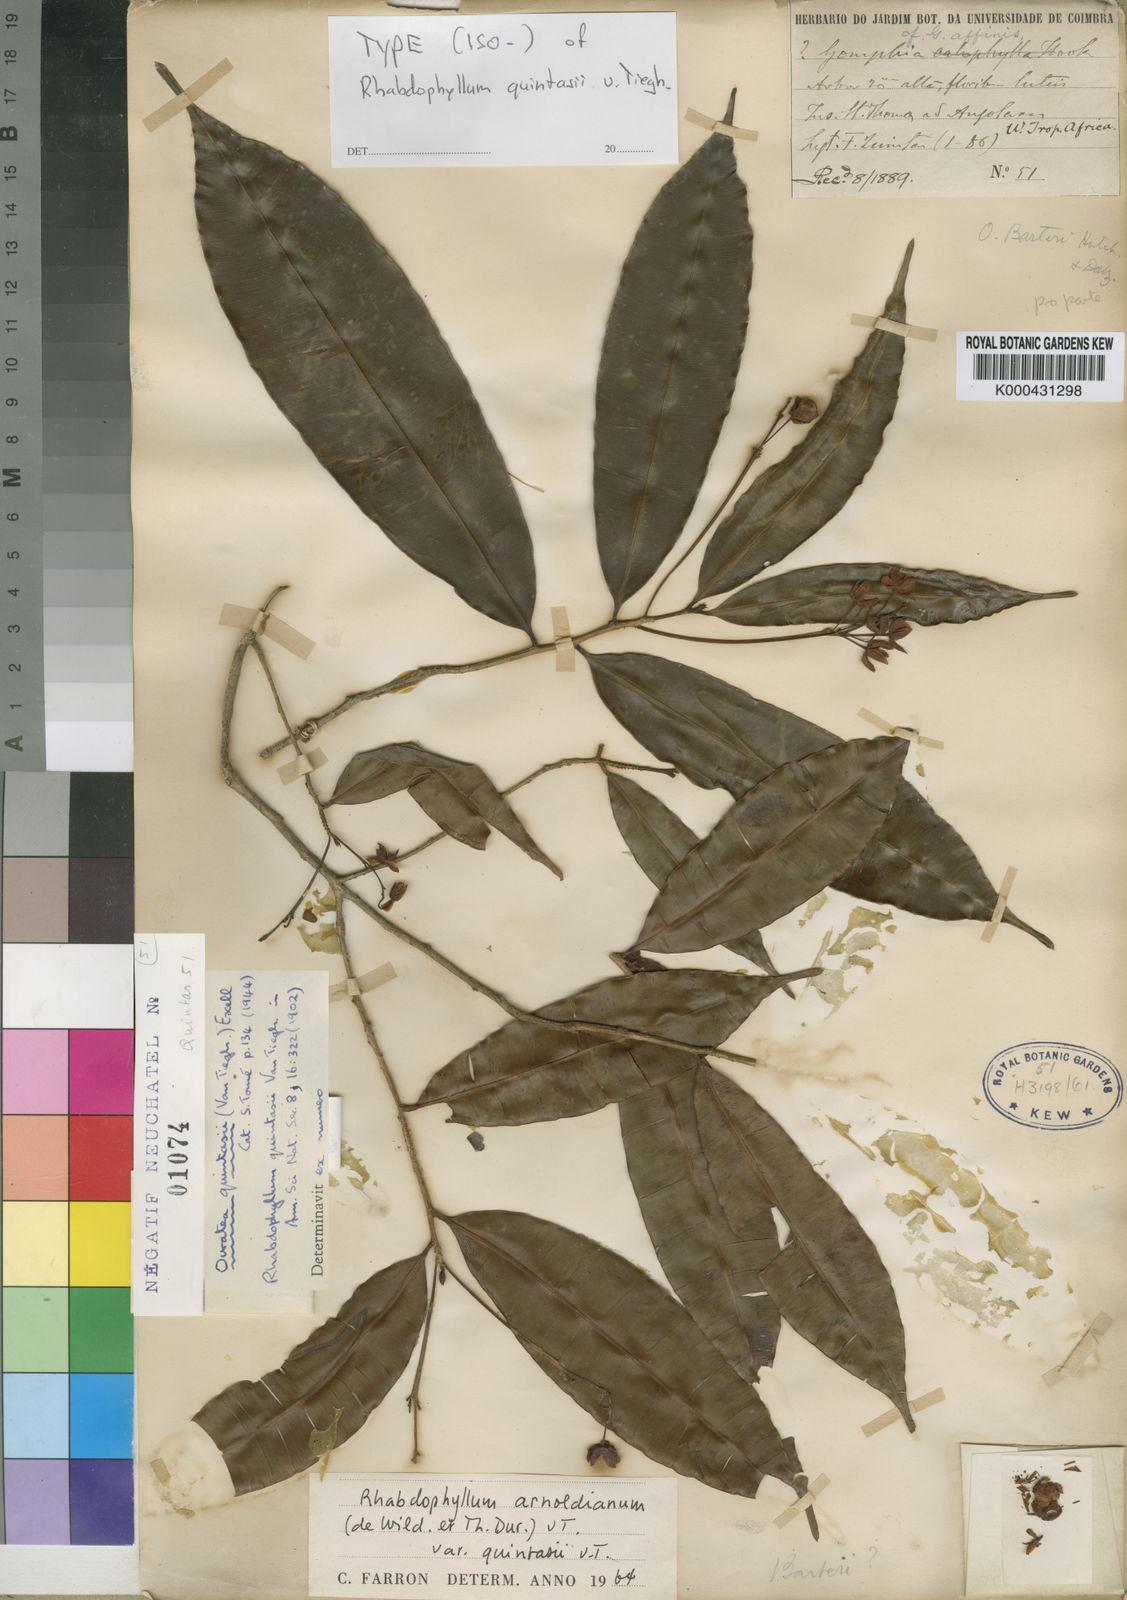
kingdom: Plantae
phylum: Tracheophyta
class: Magnoliopsida
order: Malpighiales
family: Ochnaceae
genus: Rhabdophyllum
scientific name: Rhabdophyllum
